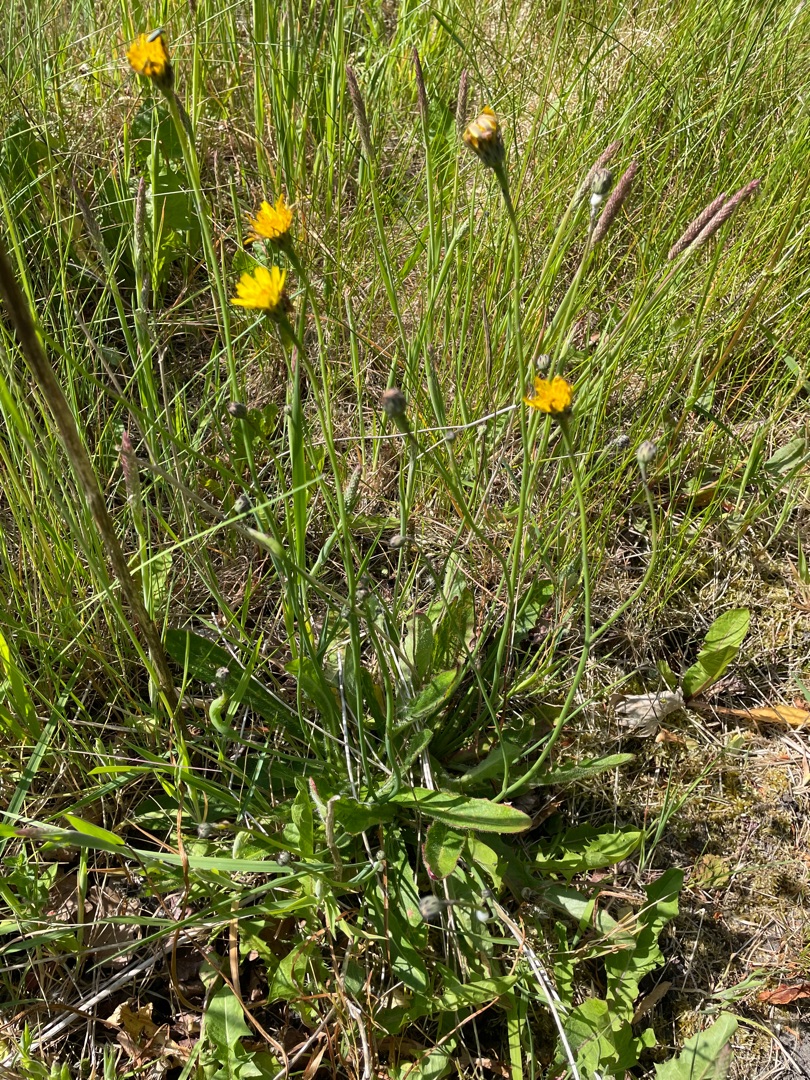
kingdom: Plantae
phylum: Tracheophyta
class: Magnoliopsida
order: Asterales
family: Asteraceae
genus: Hypochaeris
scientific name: Hypochaeris radicata
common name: Almindelig kongepen
